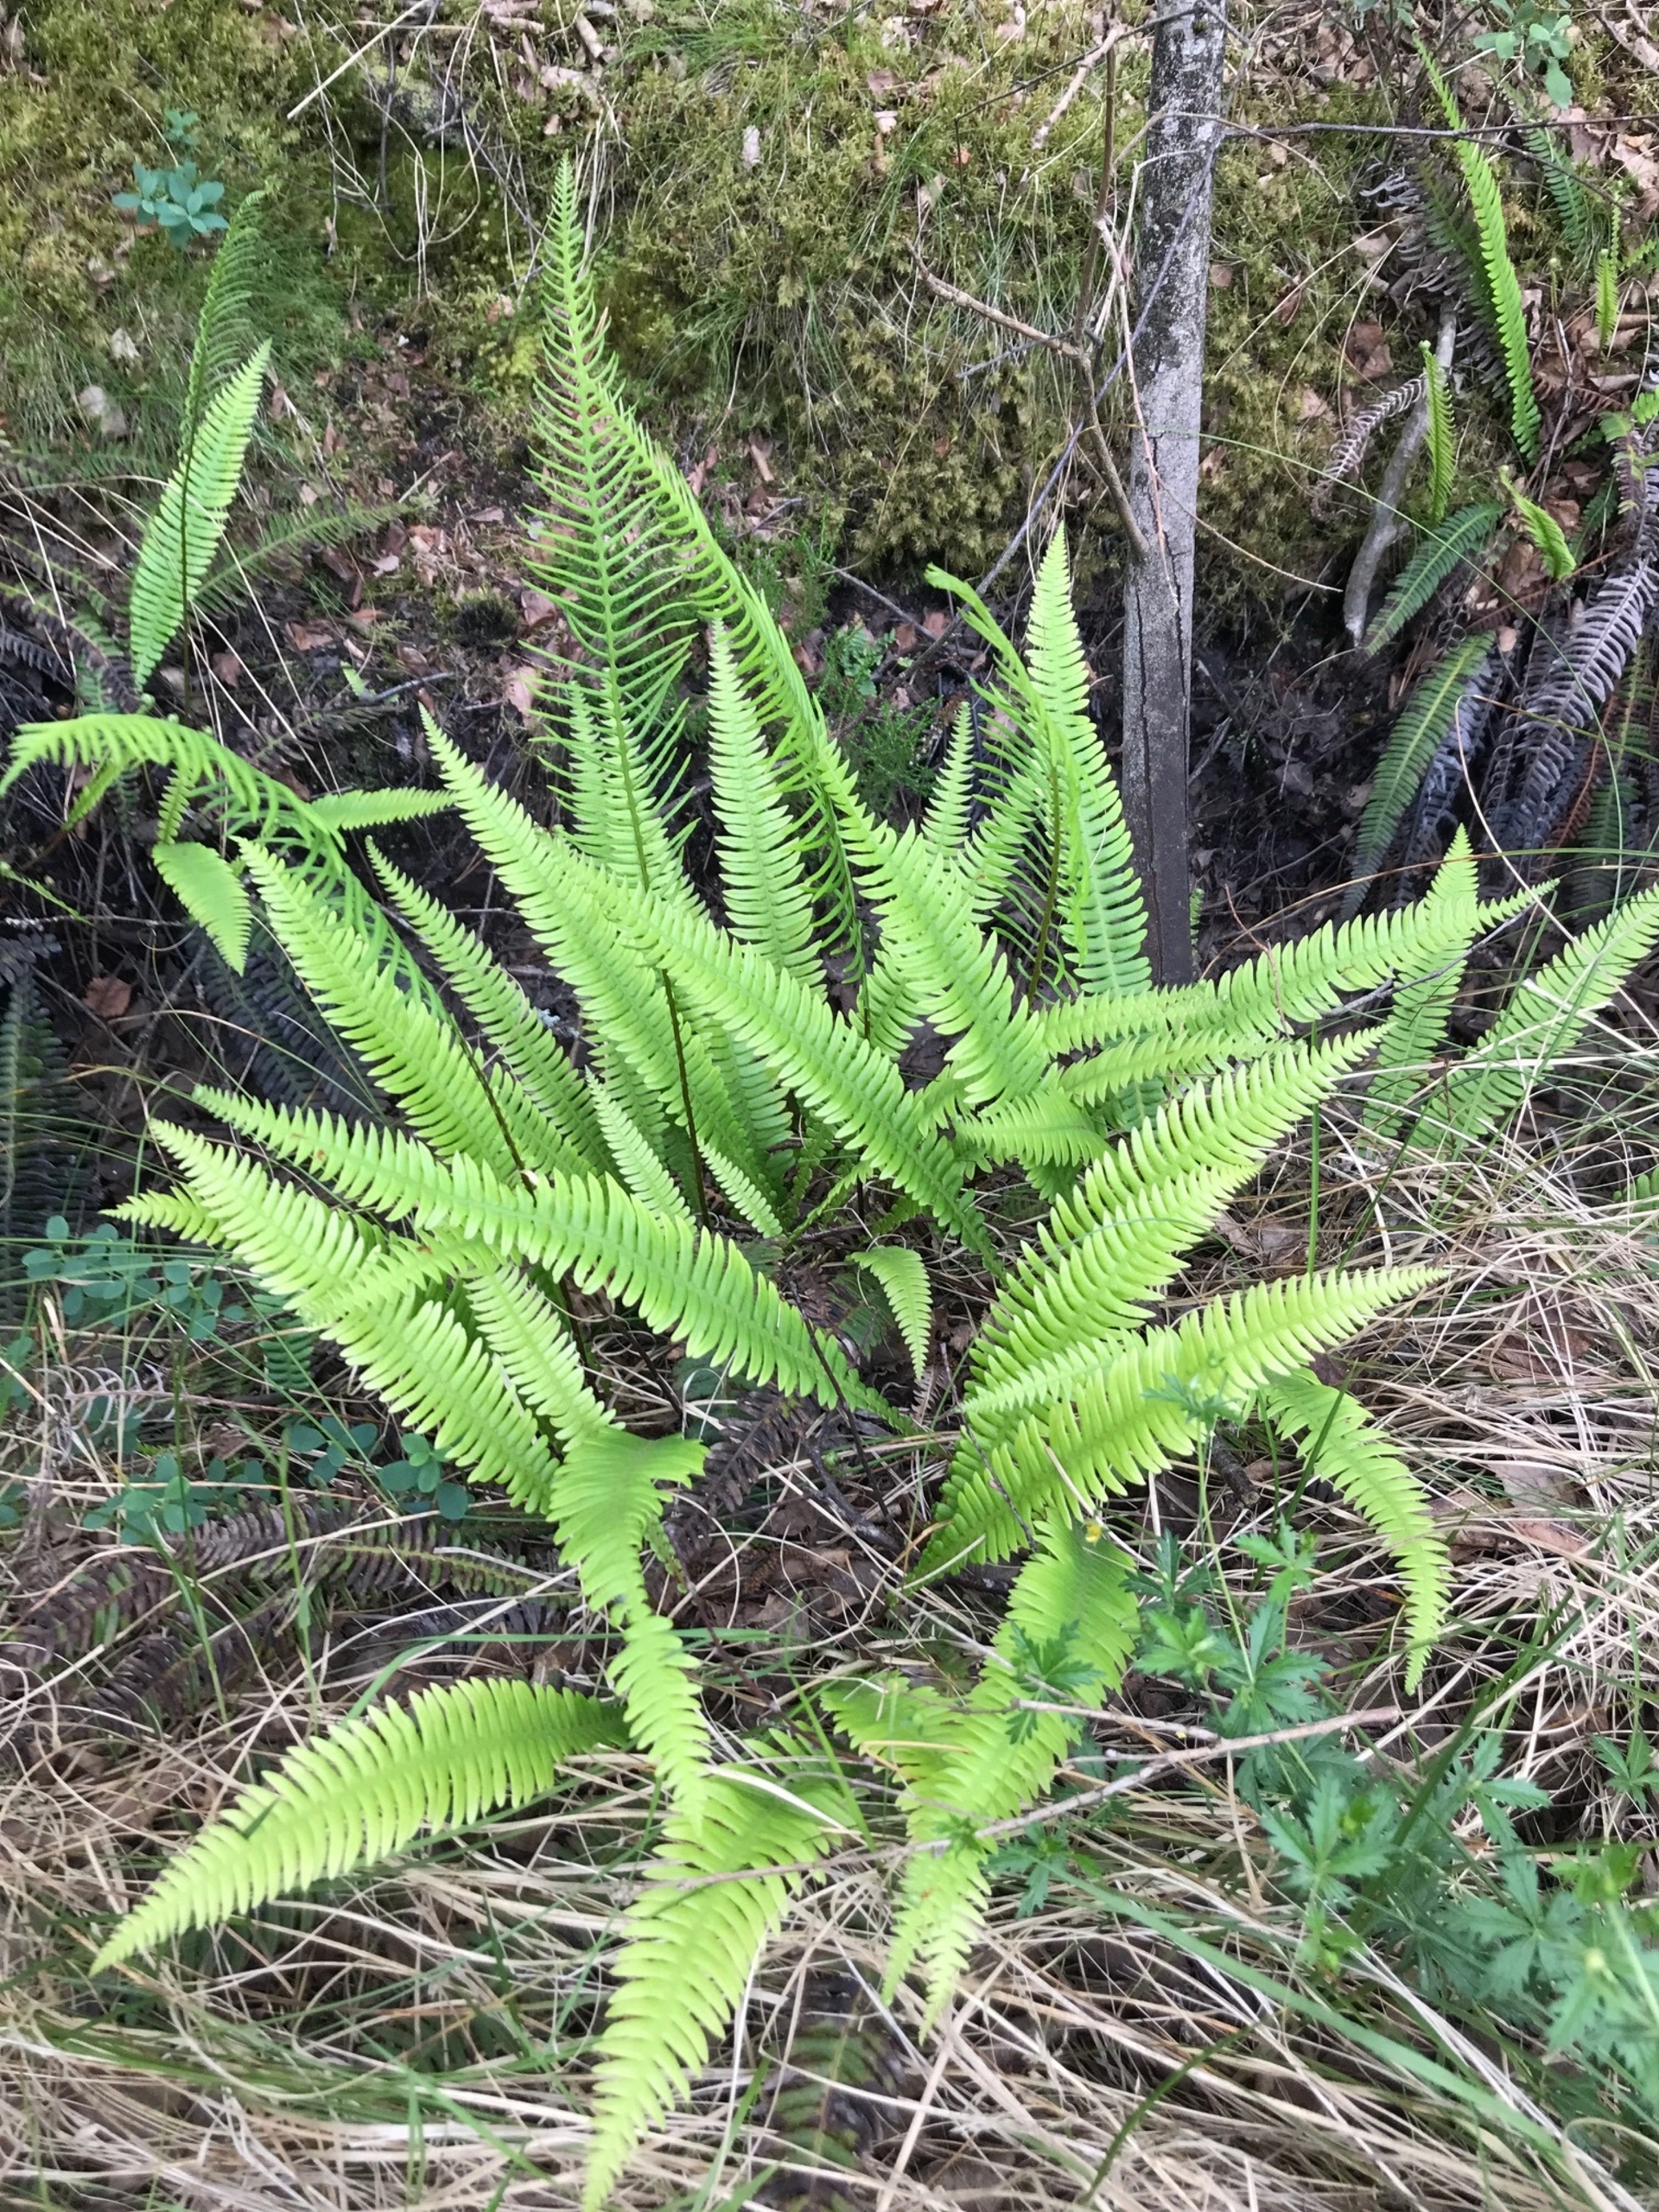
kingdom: Plantae
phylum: Tracheophyta
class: Polypodiopsida
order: Polypodiales
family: Blechnaceae
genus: Struthiopteris
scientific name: Struthiopteris spicant
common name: Kambregne
